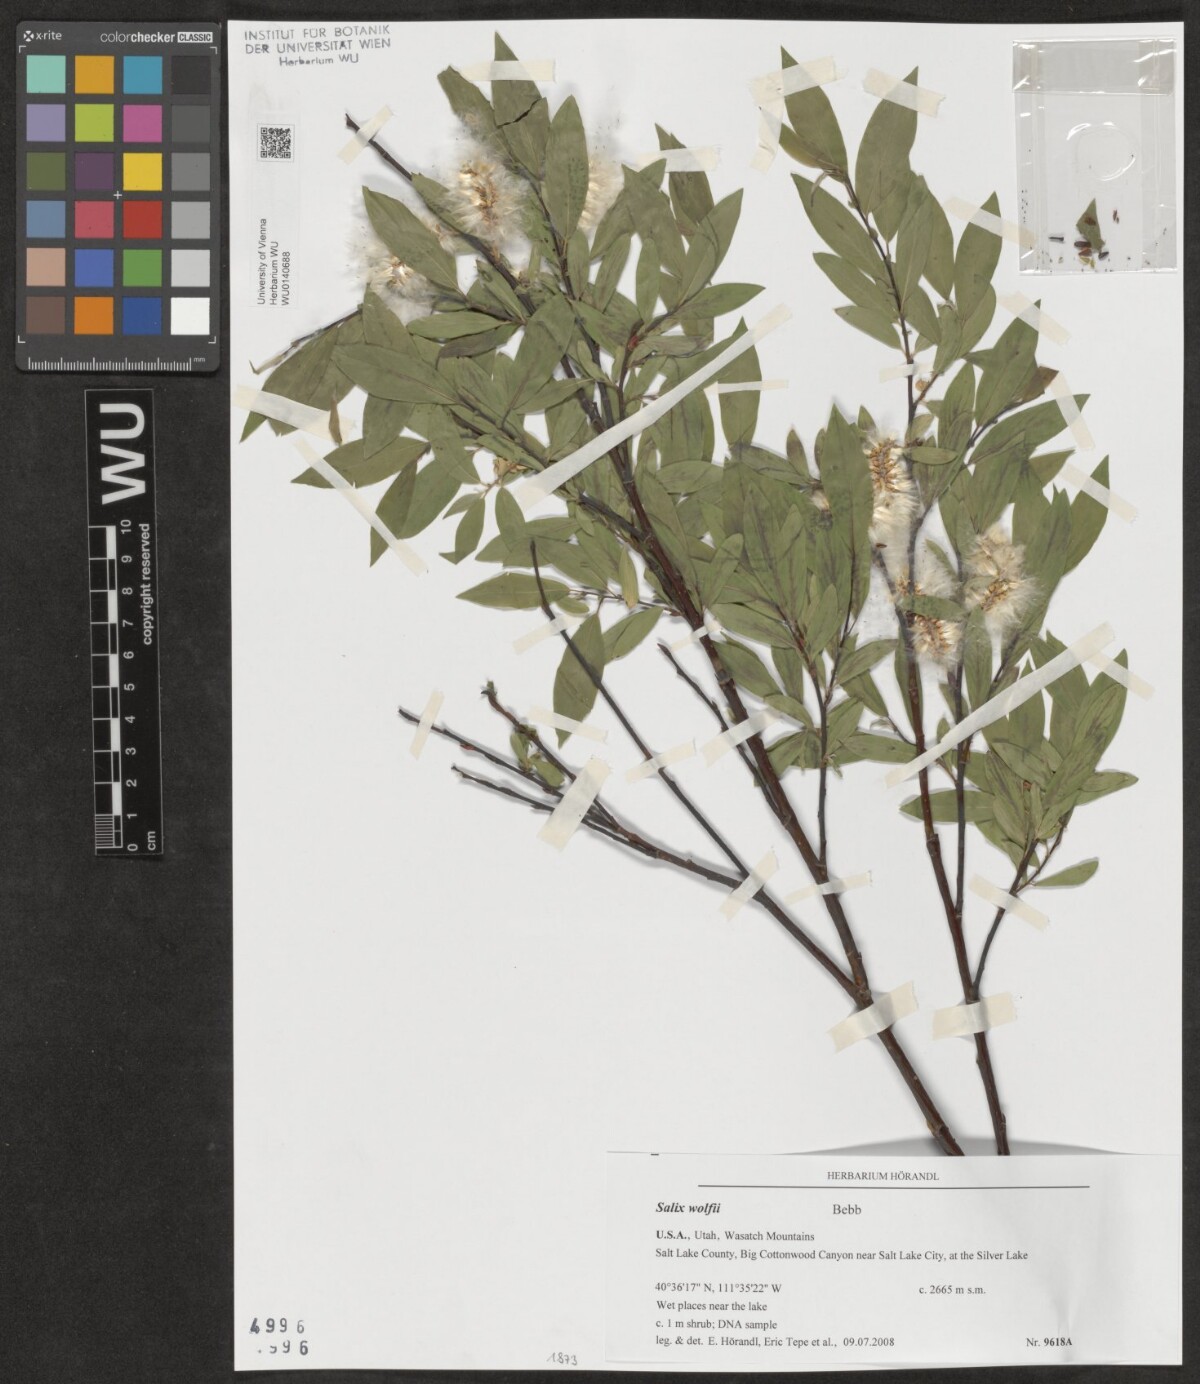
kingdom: Plantae
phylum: Tracheophyta
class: Magnoliopsida
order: Malpighiales
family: Salicaceae
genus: Salix
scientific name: Salix wolfii
